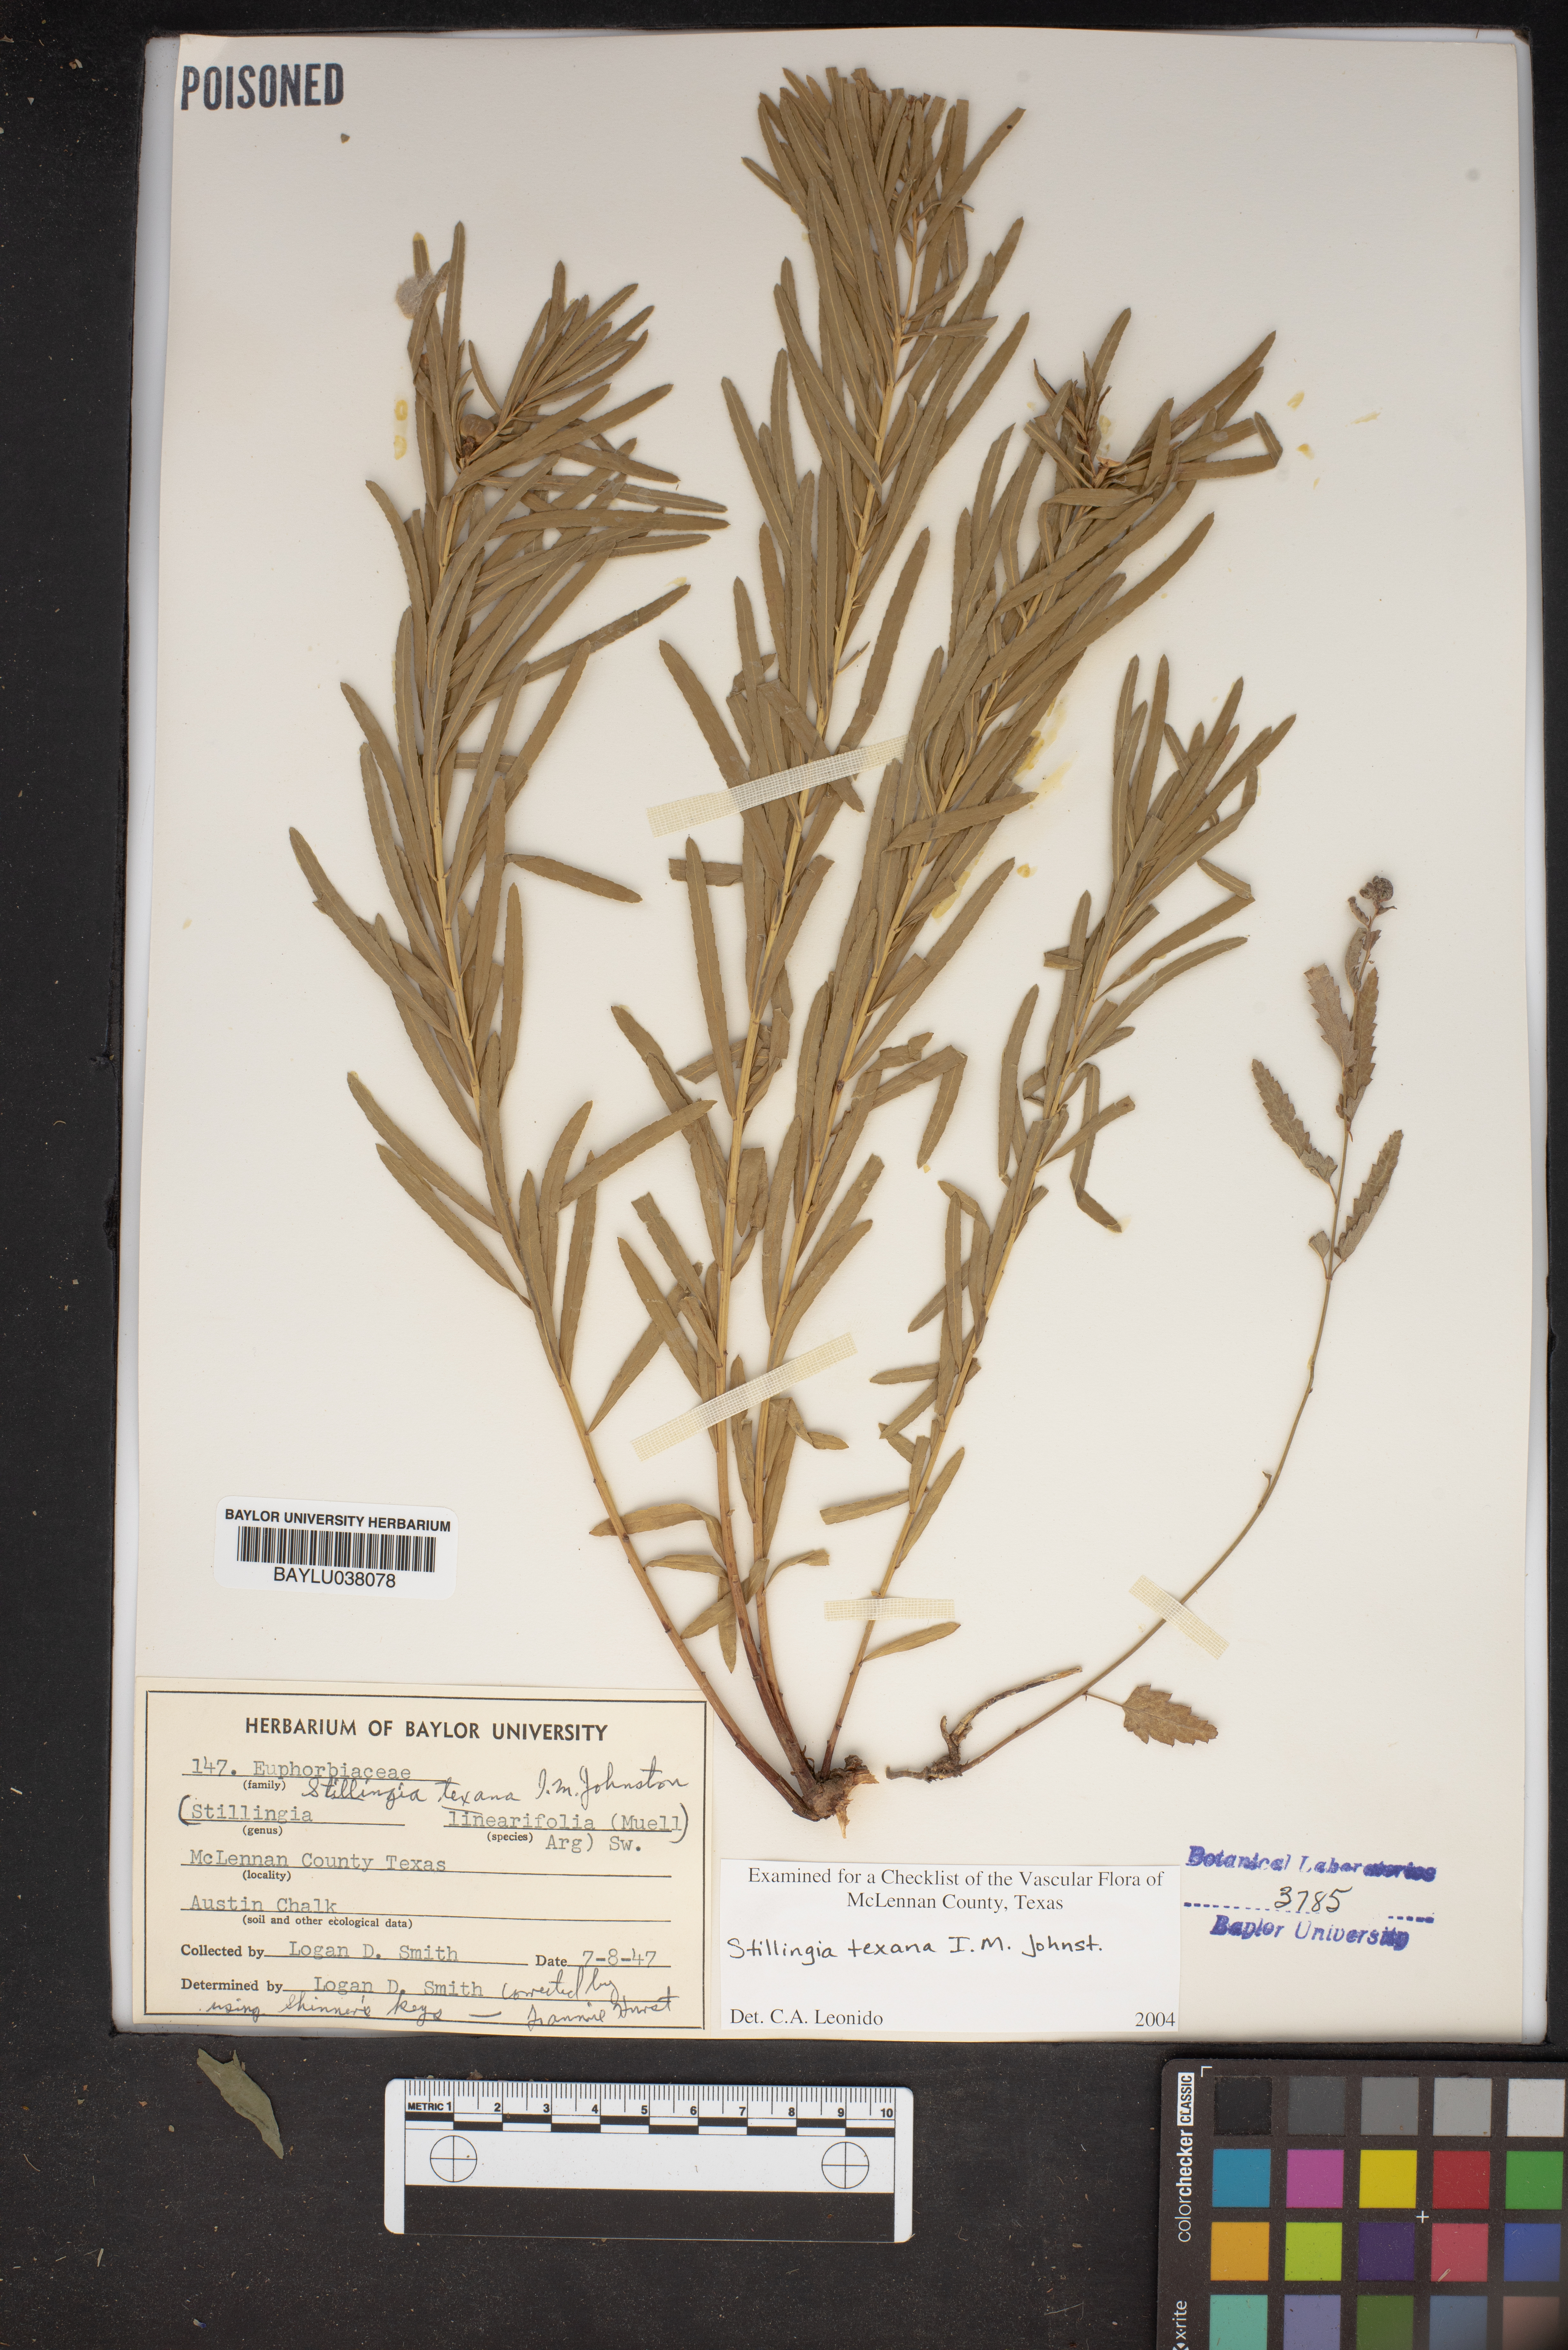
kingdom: Plantae
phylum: Tracheophyta
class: Magnoliopsida
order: Malpighiales
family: Euphorbiaceae
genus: Stillingia
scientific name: Stillingia linearifolia
